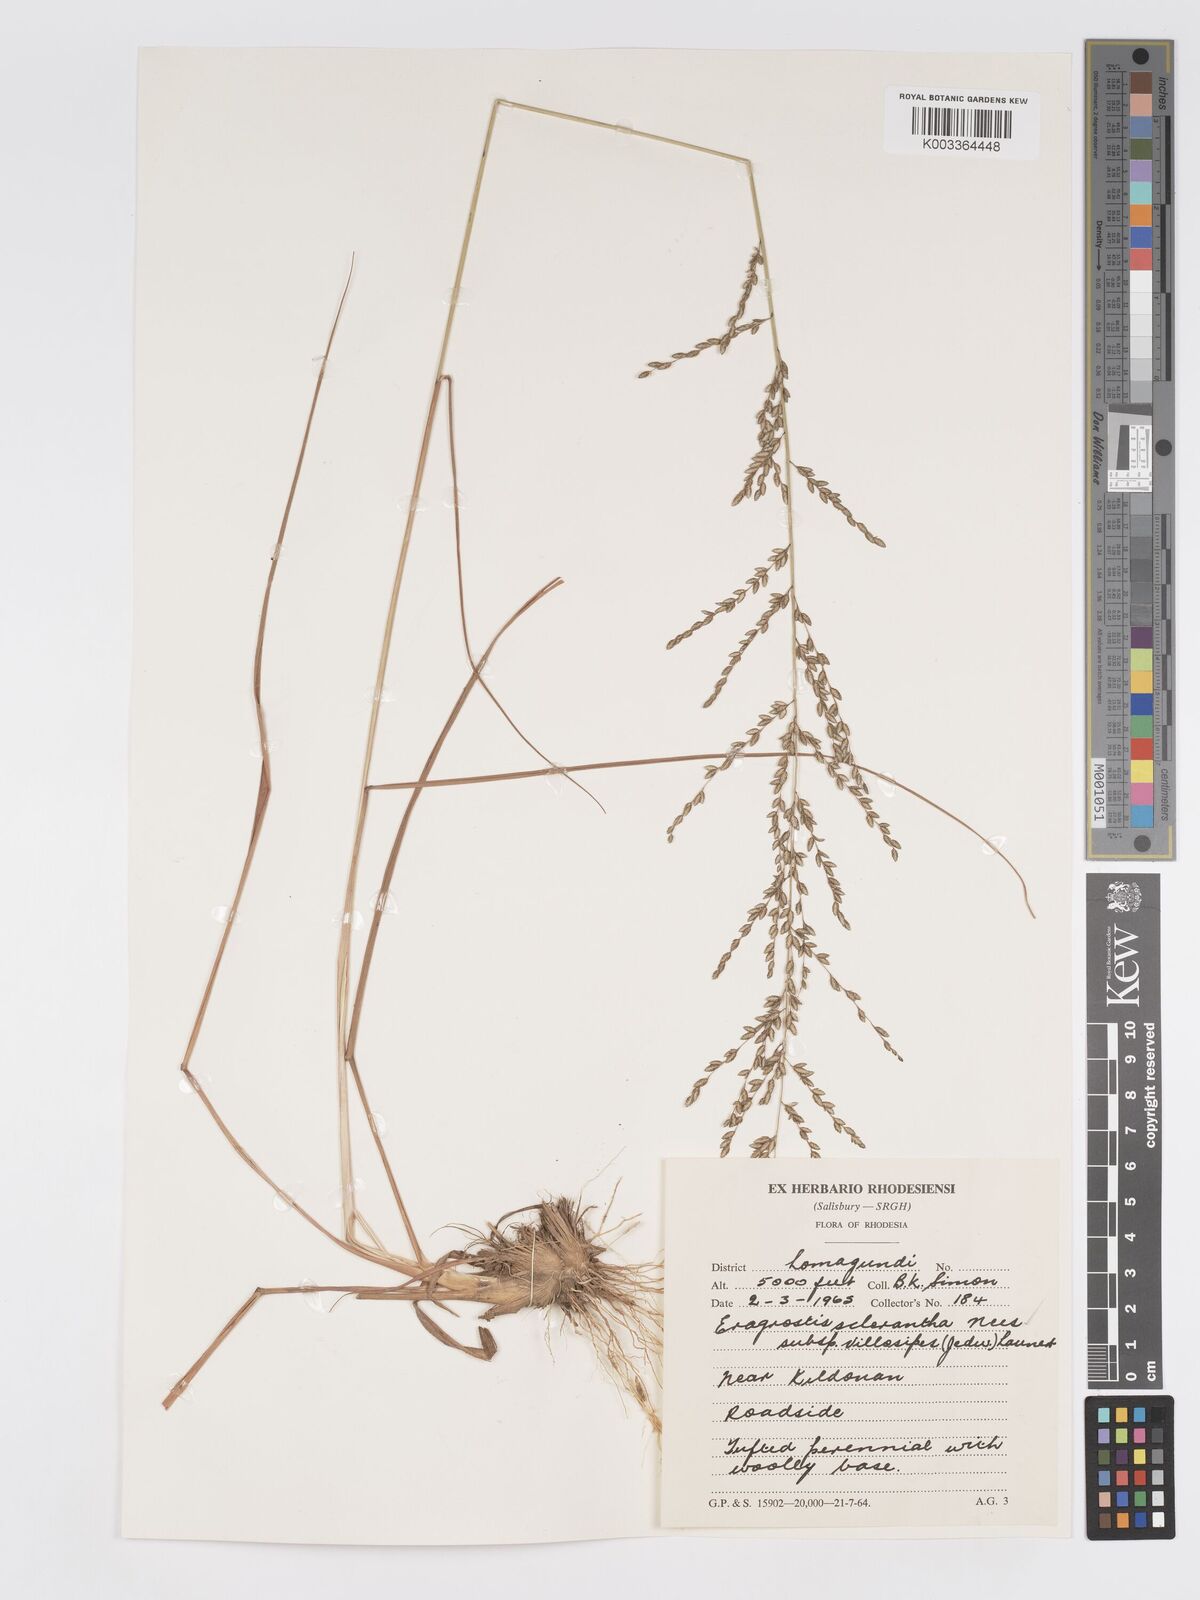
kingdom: Plantae
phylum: Tracheophyta
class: Liliopsida
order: Poales
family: Poaceae
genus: Eragrostis
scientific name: Eragrostis sclerantha
